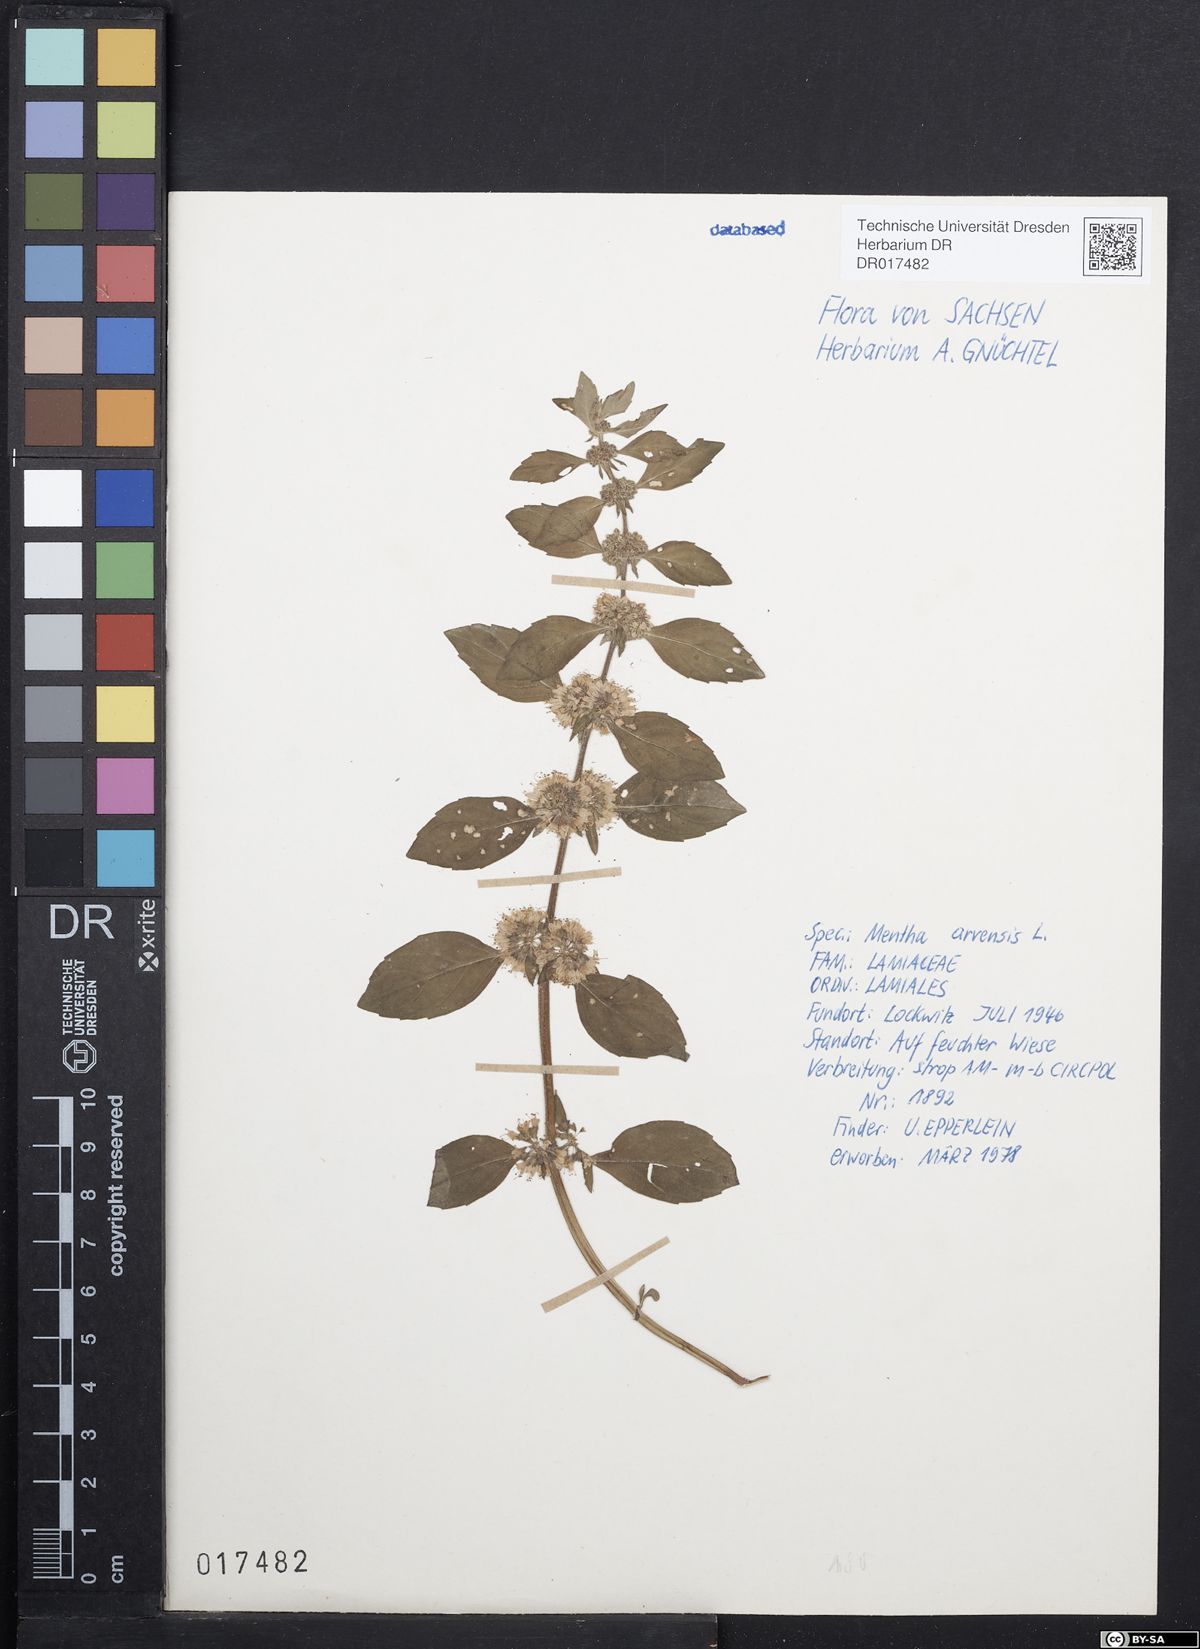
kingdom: Plantae
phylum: Tracheophyta
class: Magnoliopsida
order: Lamiales
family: Lamiaceae
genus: Mentha
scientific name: Mentha arvensis
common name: Corn mint
